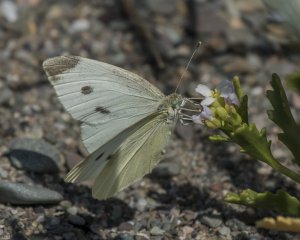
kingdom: Animalia
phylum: Arthropoda
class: Insecta
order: Lepidoptera
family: Pieridae
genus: Pieris
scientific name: Pieris rapae
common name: Cabbage White
